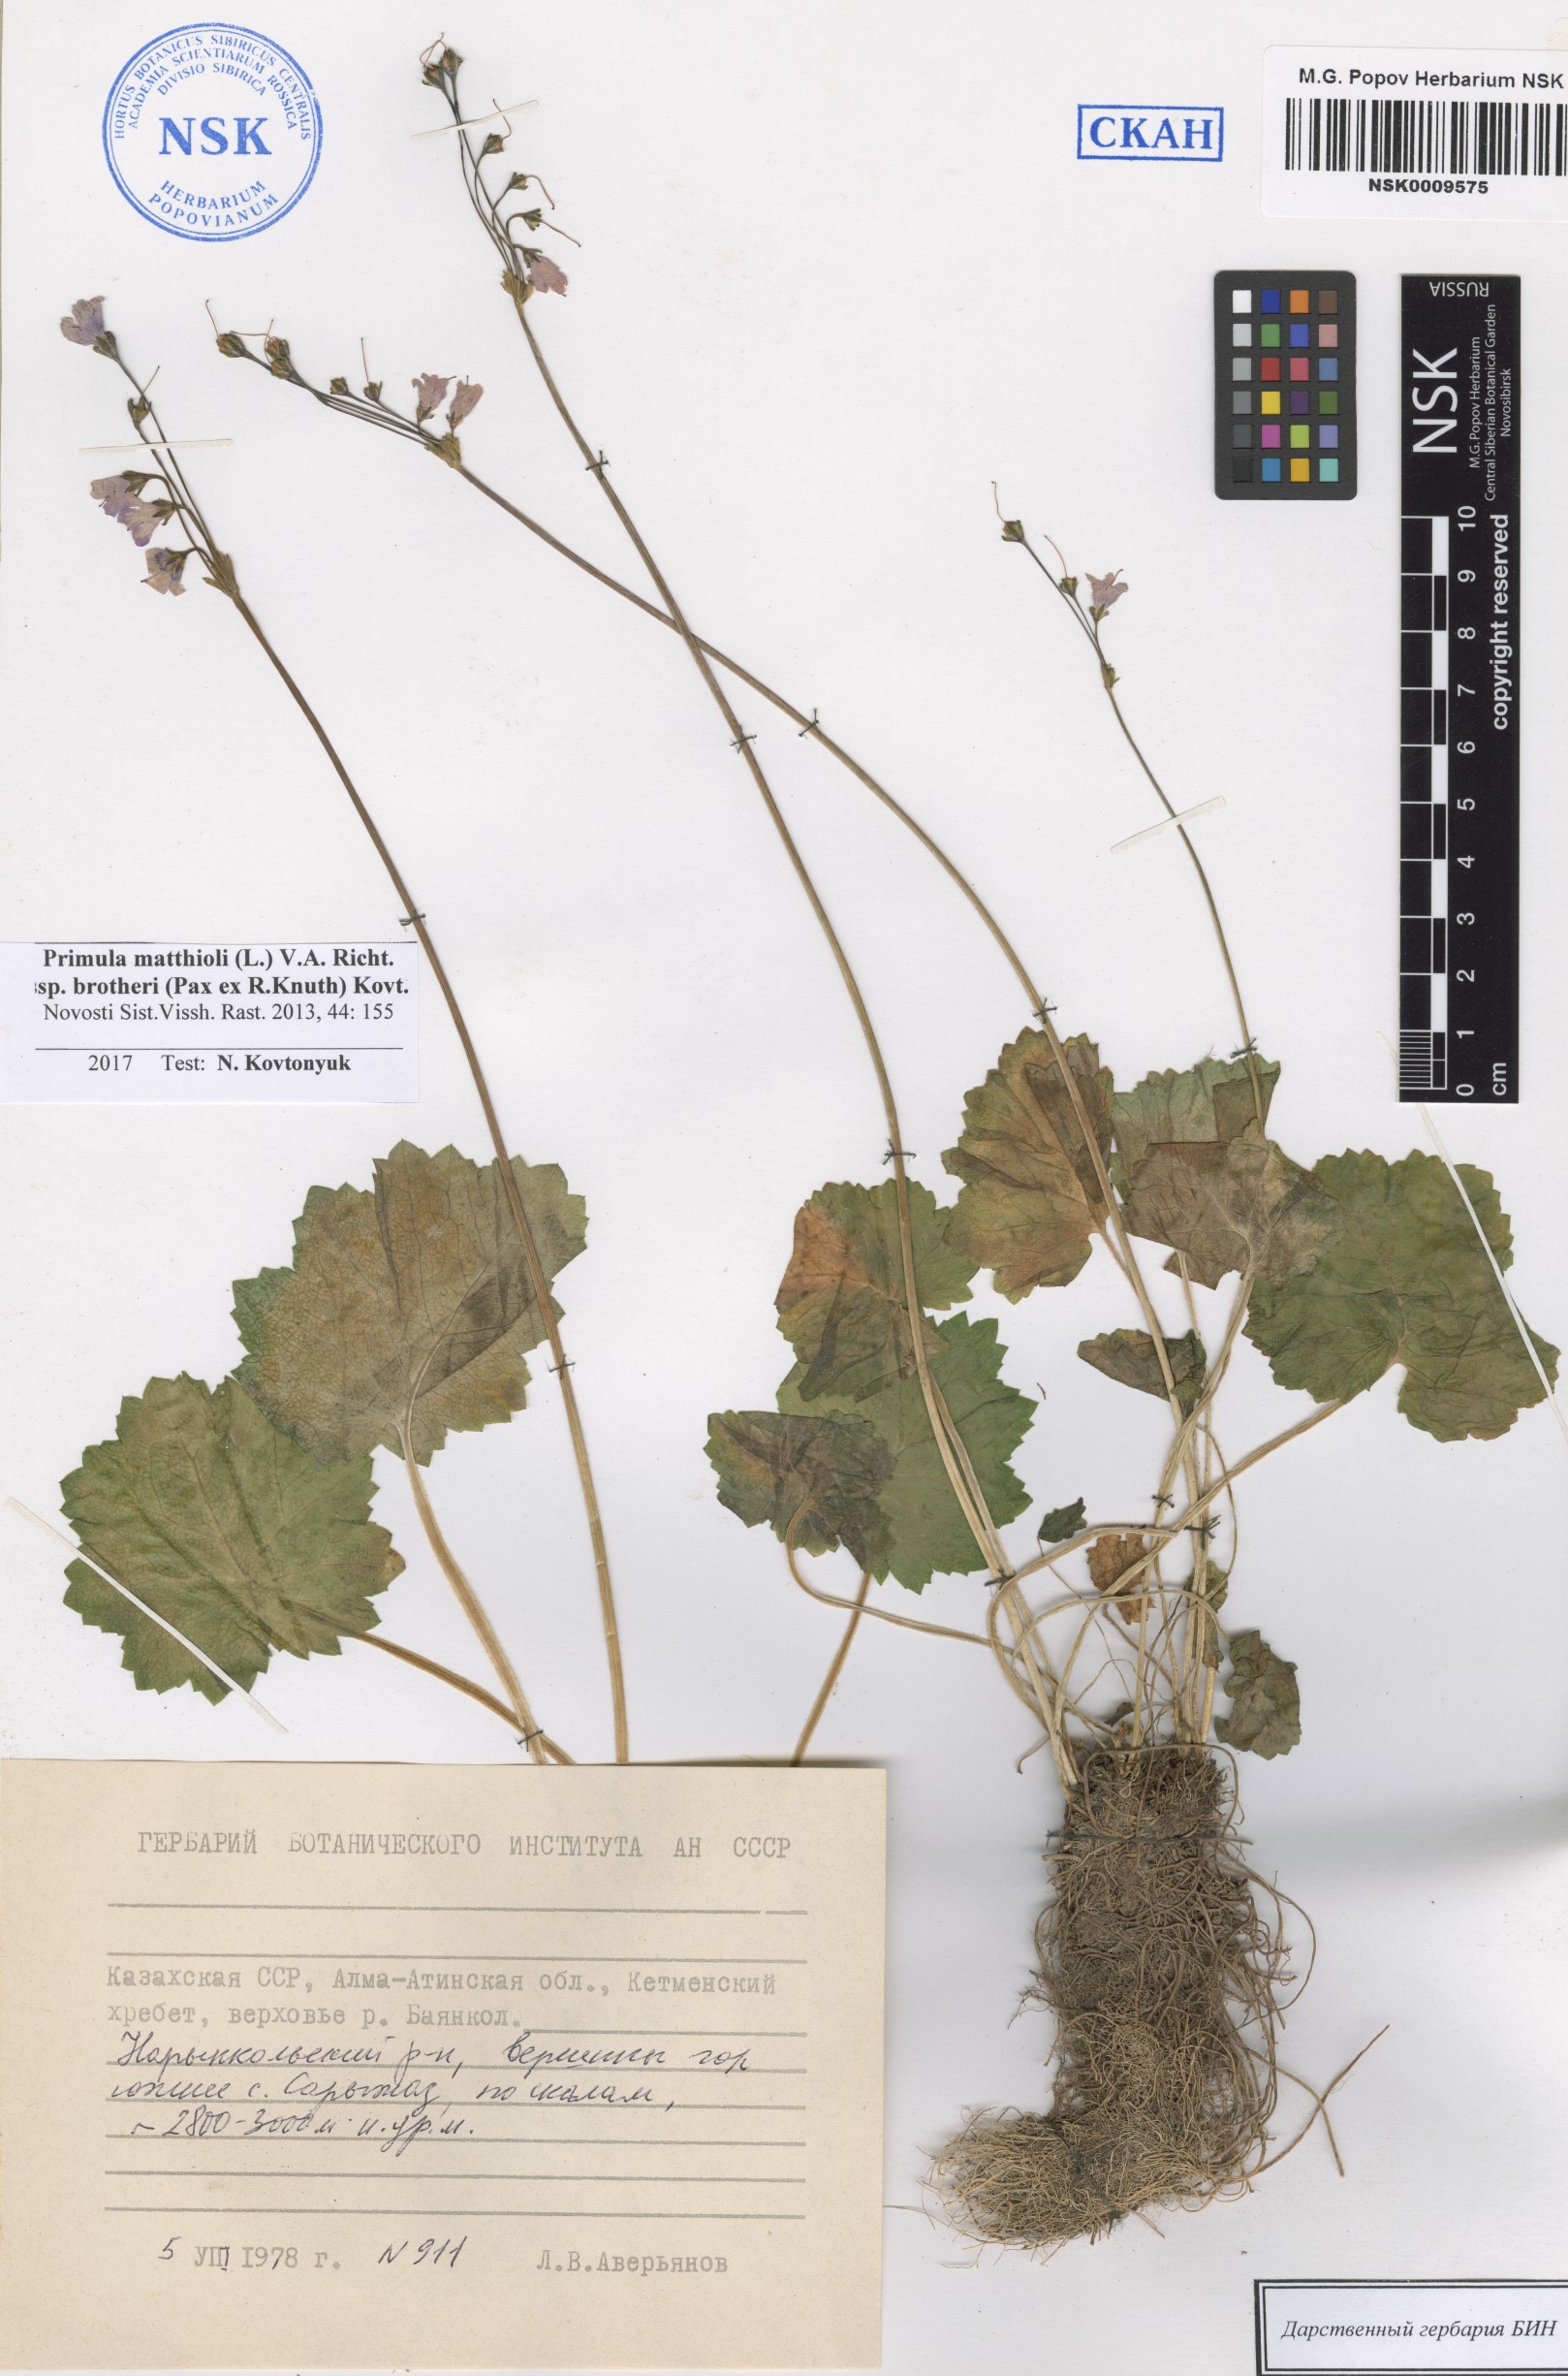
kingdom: Plantae
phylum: Tracheophyta
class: Magnoliopsida
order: Ericales
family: Primulaceae
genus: Primula
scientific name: Primula matthioli
